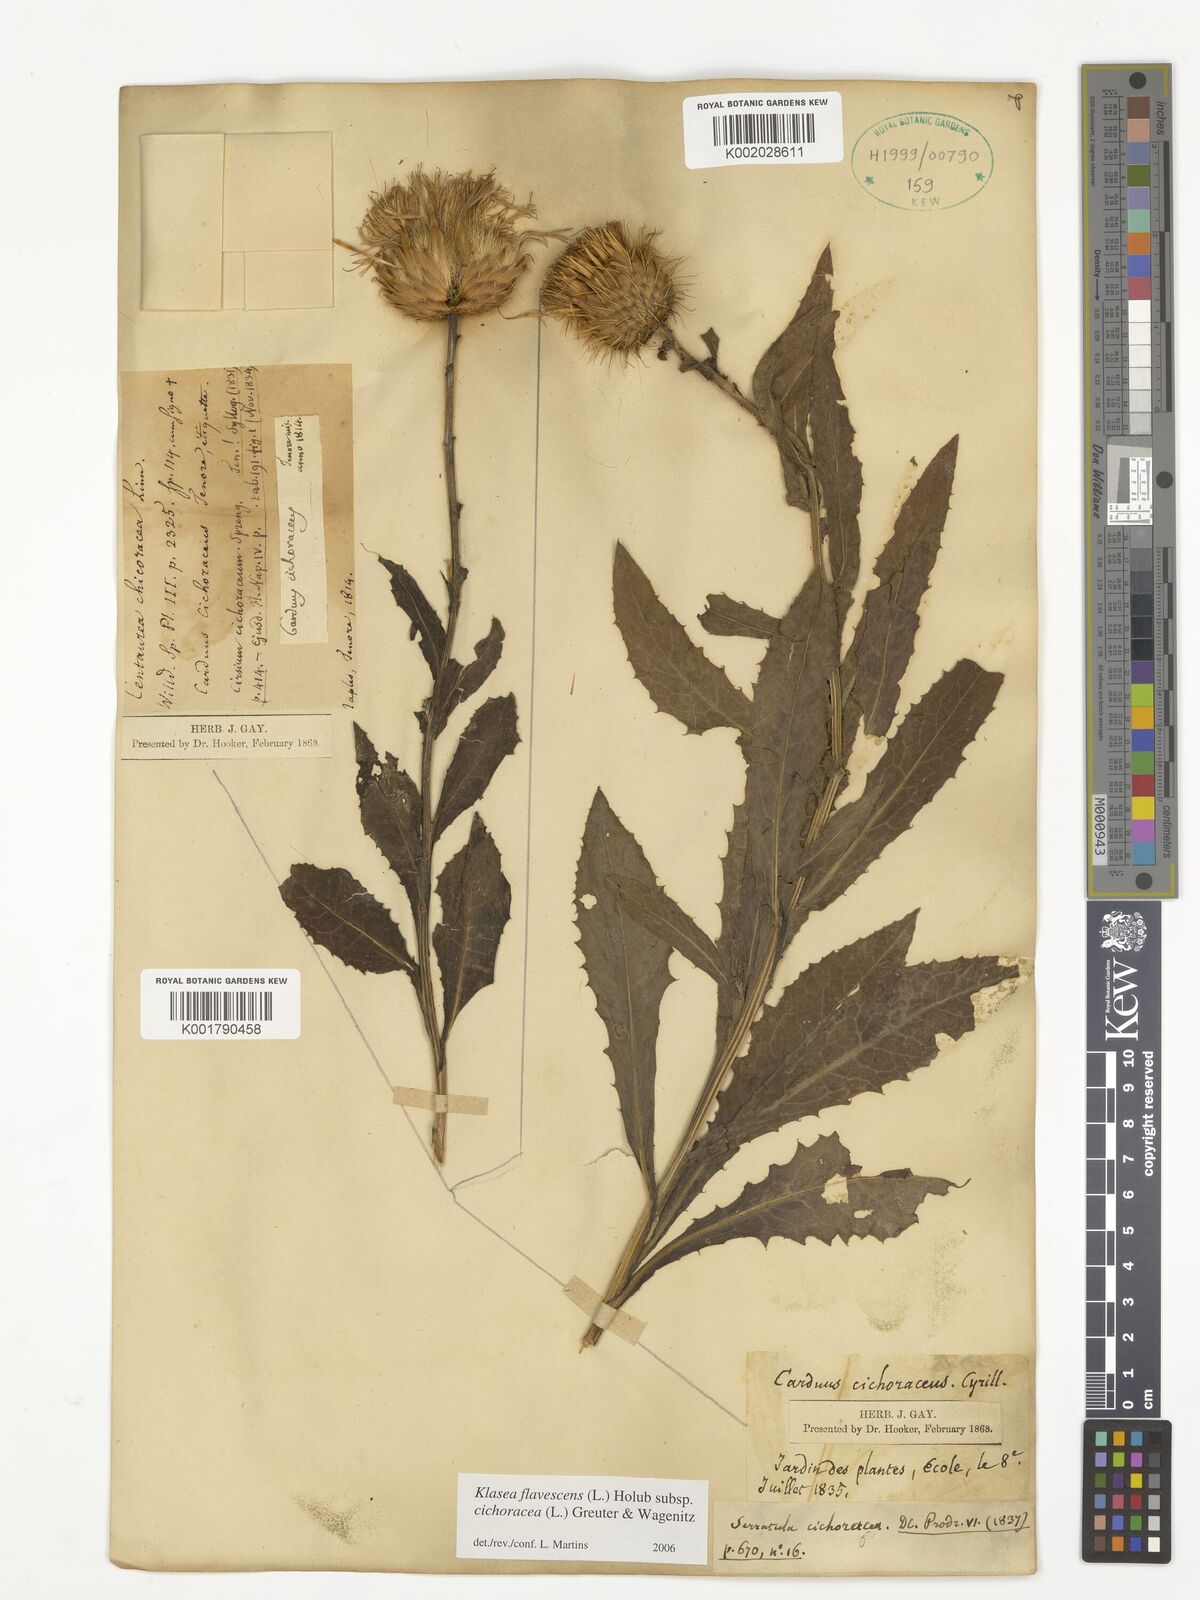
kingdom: Plantae
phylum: Tracheophyta
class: Magnoliopsida
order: Asterales
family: Asteraceae
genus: Klasea
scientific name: Klasea flavescens
